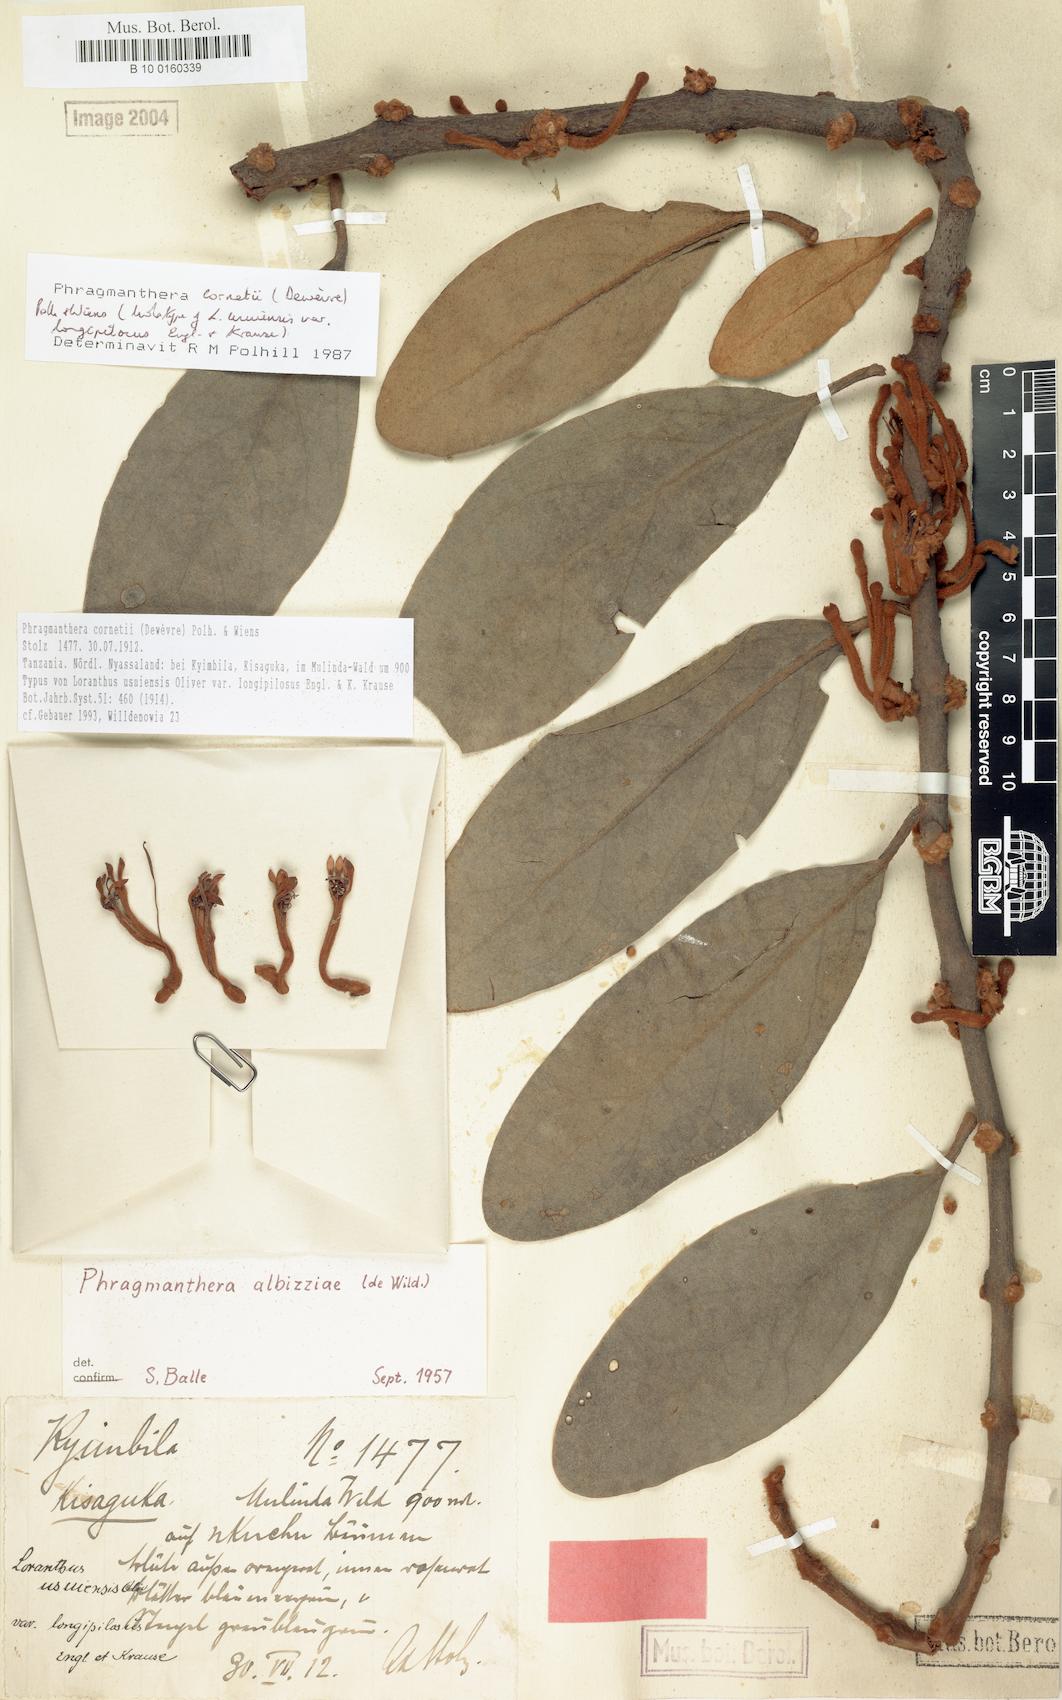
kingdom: Plantae
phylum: Tracheophyta
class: Magnoliopsida
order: Santalales
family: Loranthaceae
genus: Phragmanthera
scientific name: Phragmanthera cornetii
